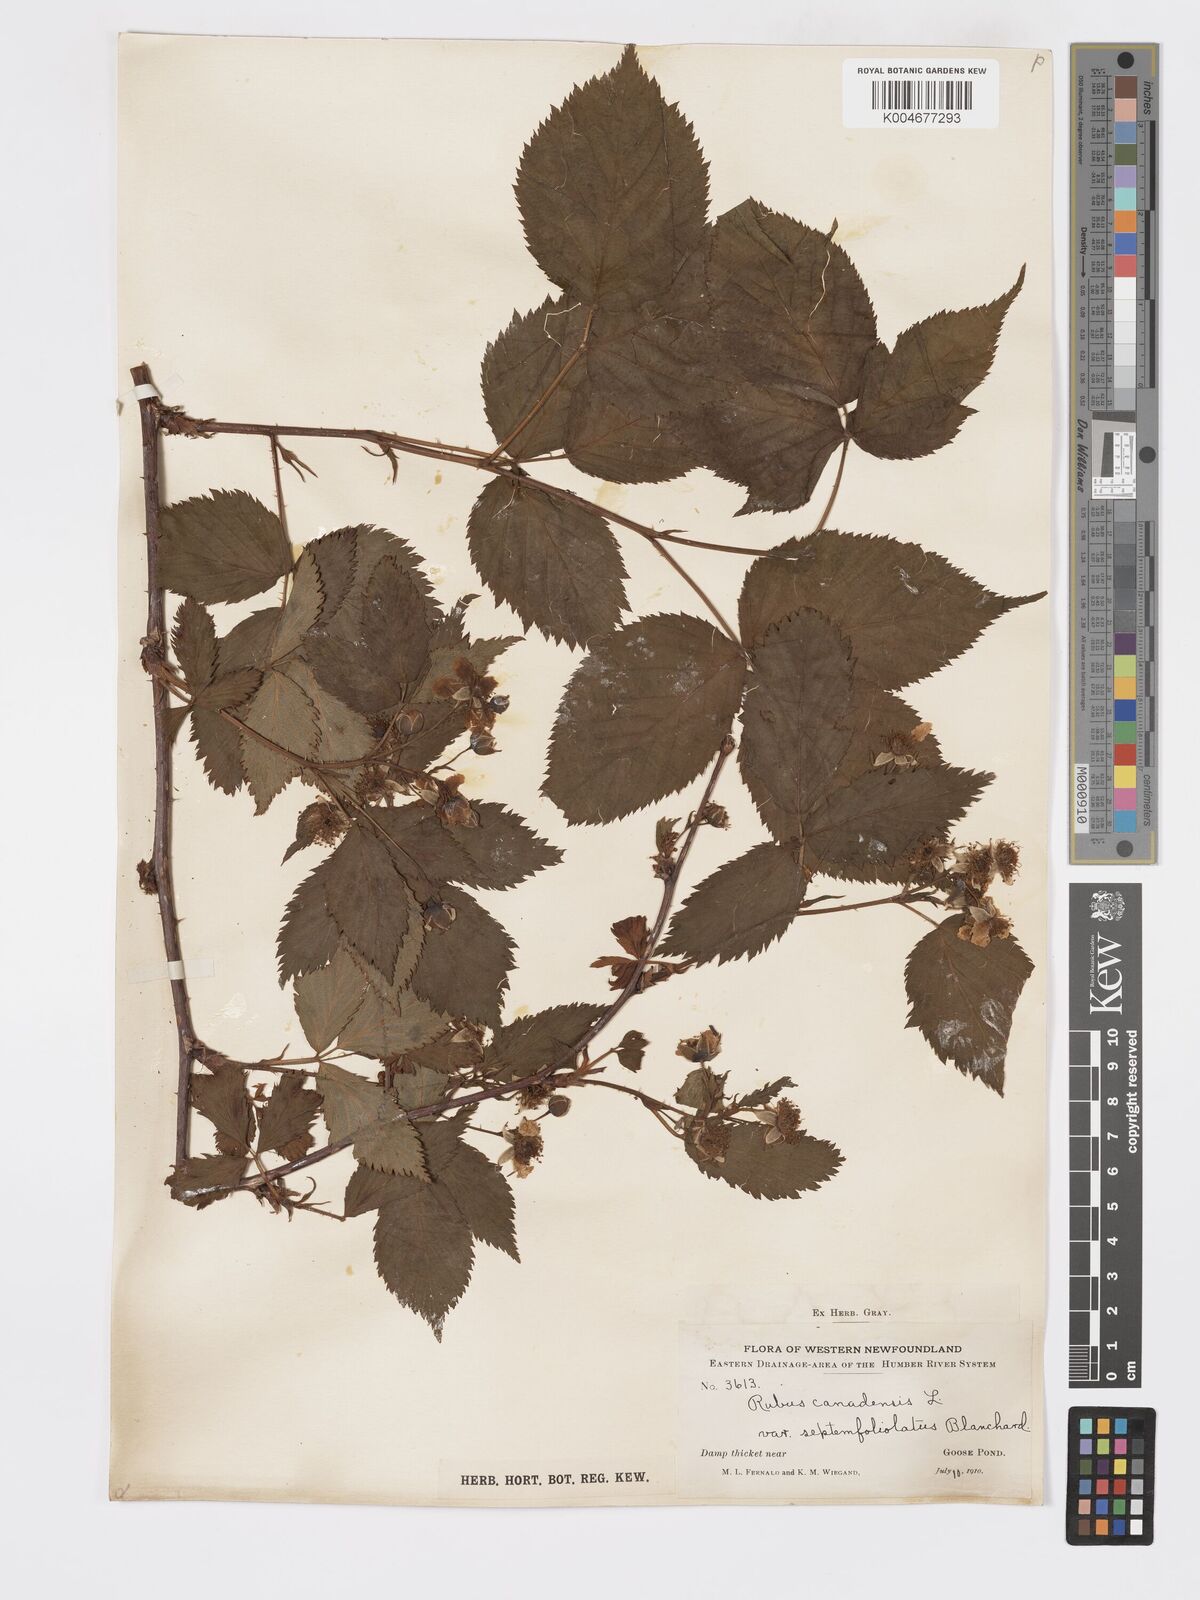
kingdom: Plantae
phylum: Tracheophyta
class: Magnoliopsida
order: Rosales
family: Rosaceae
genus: Rubus
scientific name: Rubus canadensis
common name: Smooth blackberry
